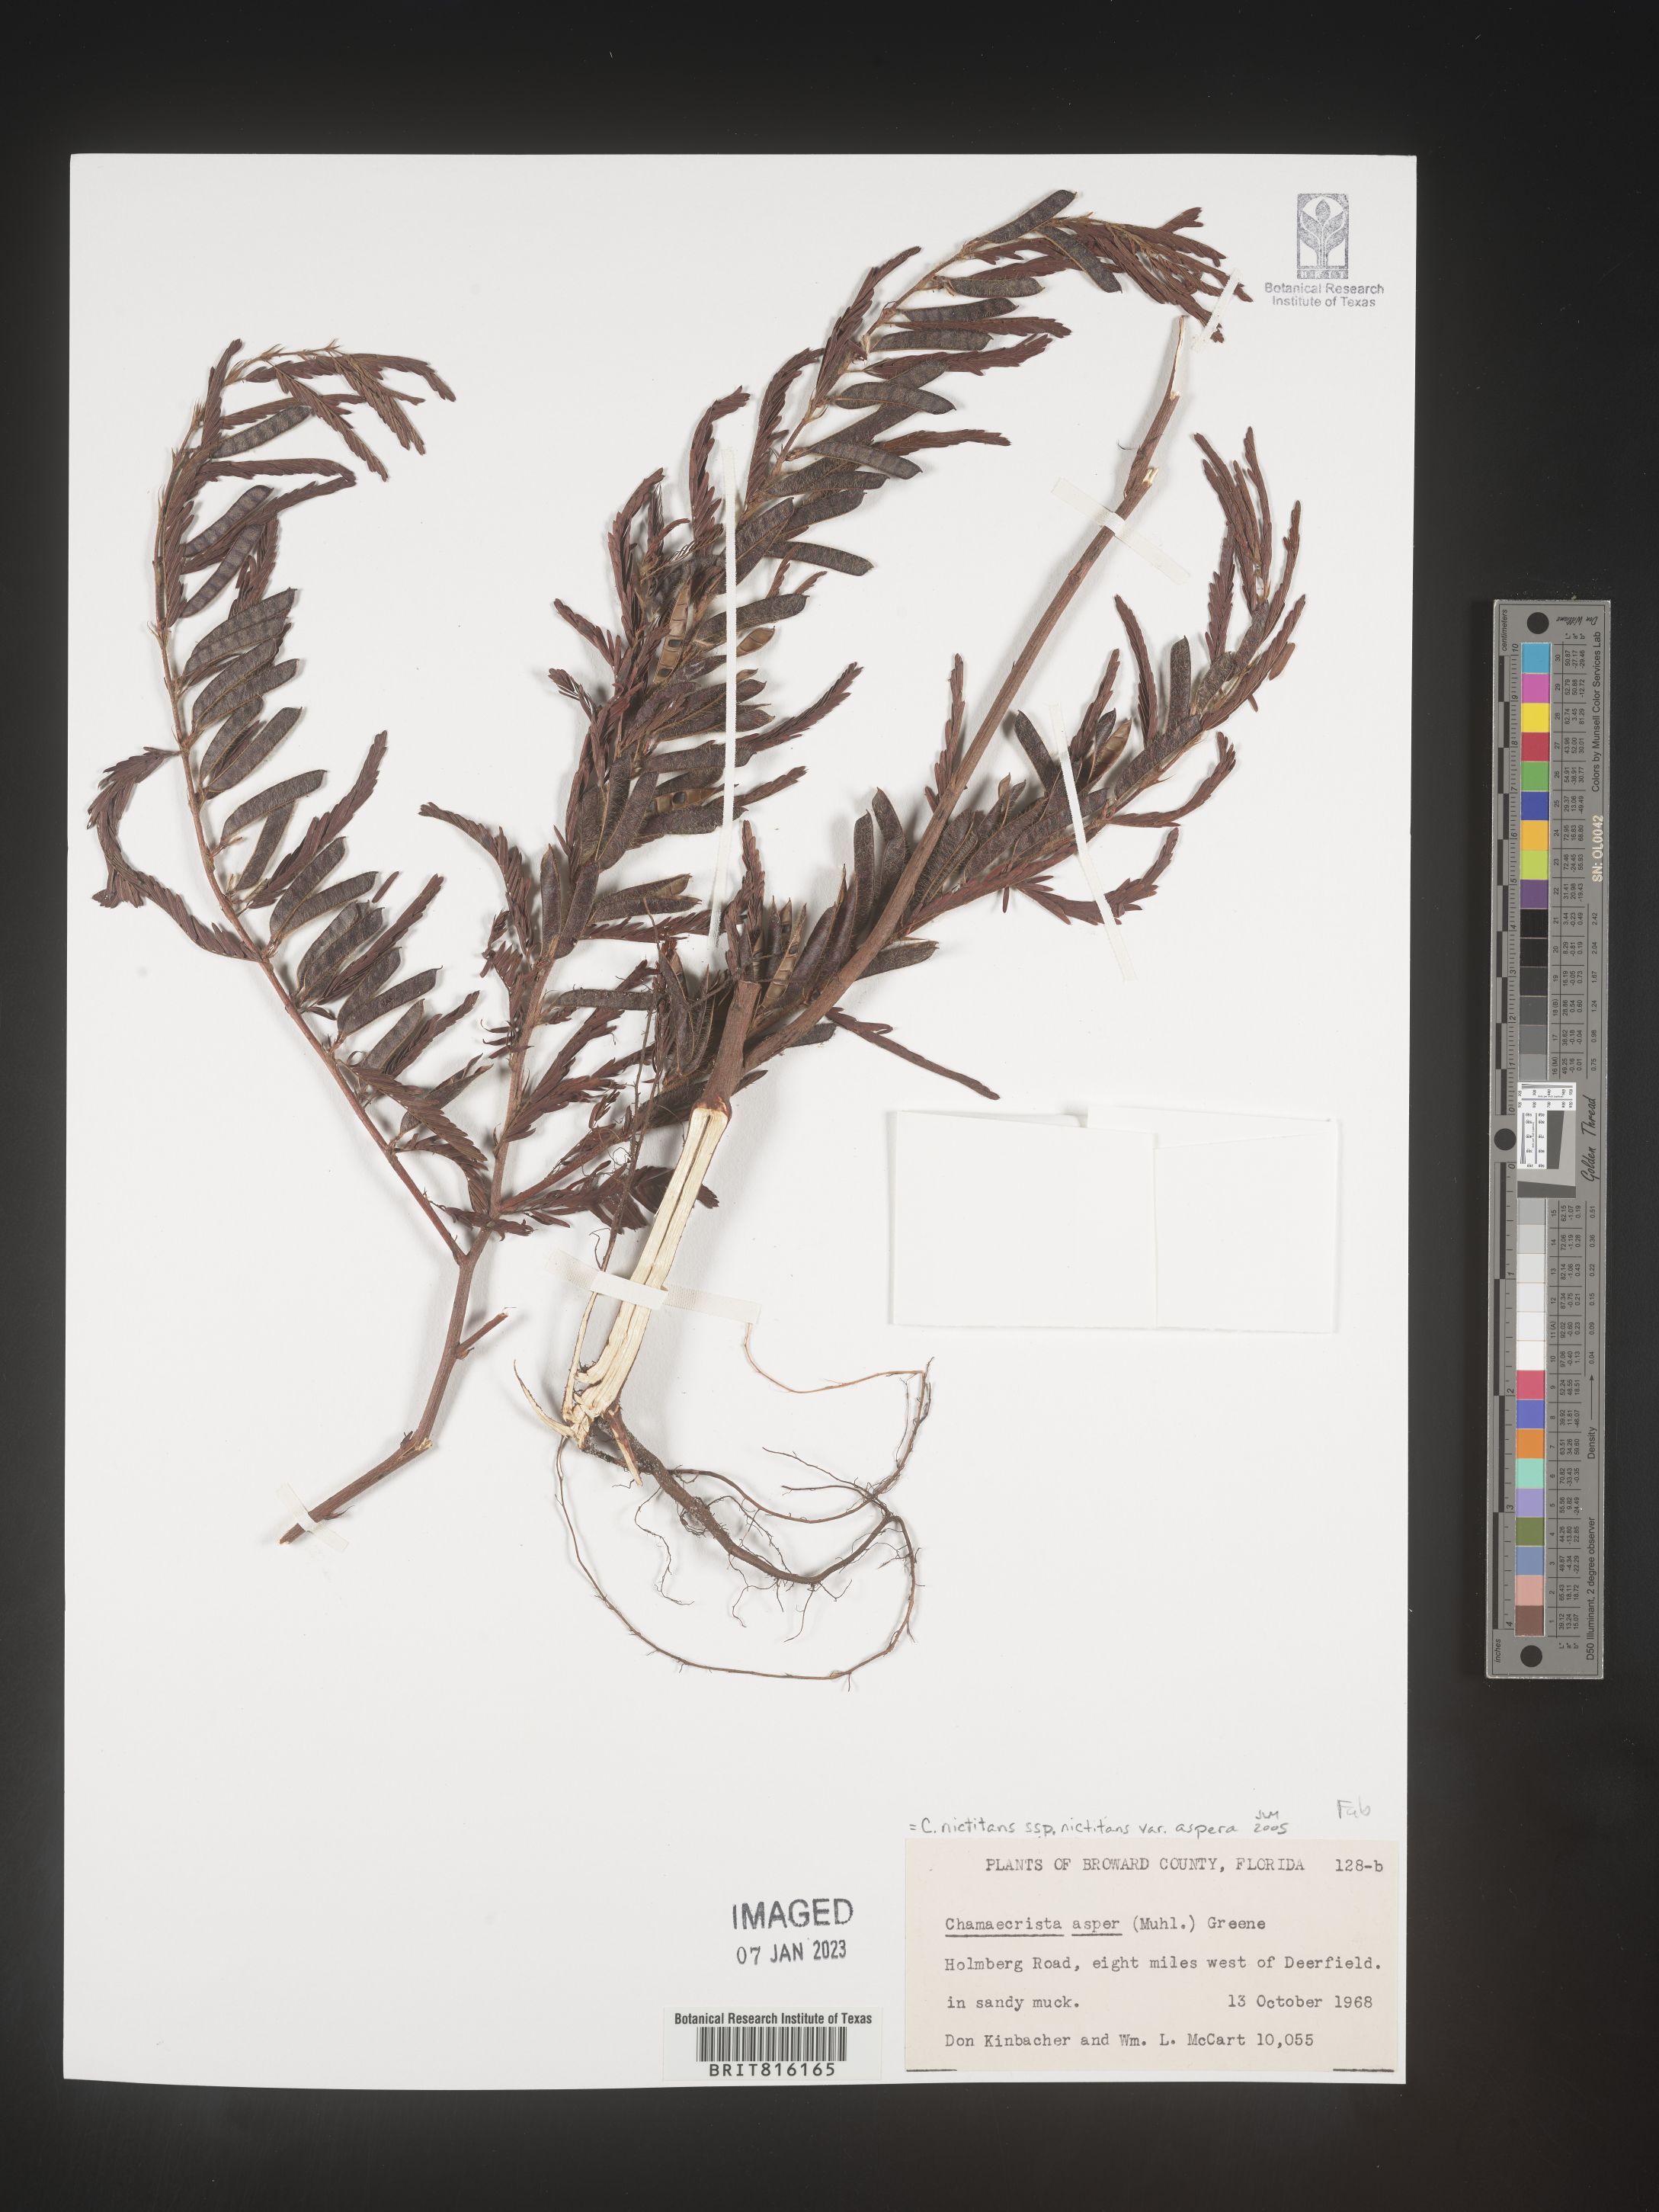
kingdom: Plantae
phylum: Tracheophyta
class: Magnoliopsida
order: Fabales
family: Fabaceae
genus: Chamaecrista
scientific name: Chamaecrista
